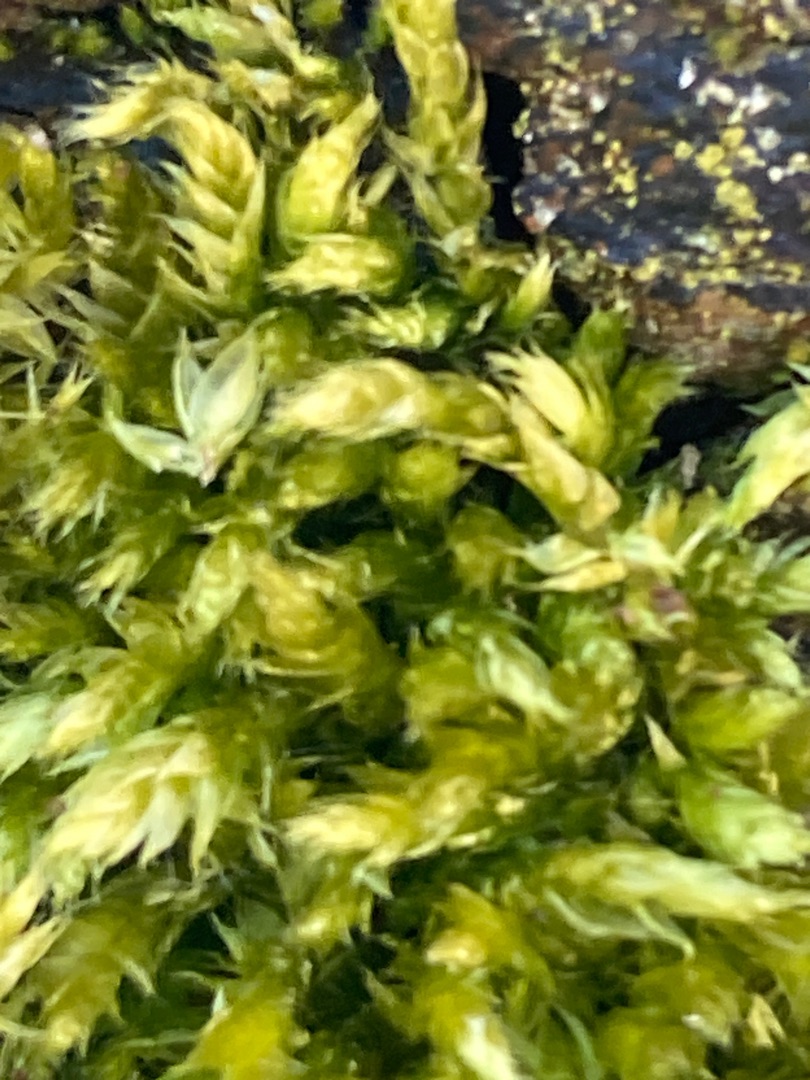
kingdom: Plantae
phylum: Bryophyta
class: Bryopsida
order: Hypnales
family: Brachytheciaceae
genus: Brachythecium
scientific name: Brachythecium rutabulum
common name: Almindelig kortkapsel
